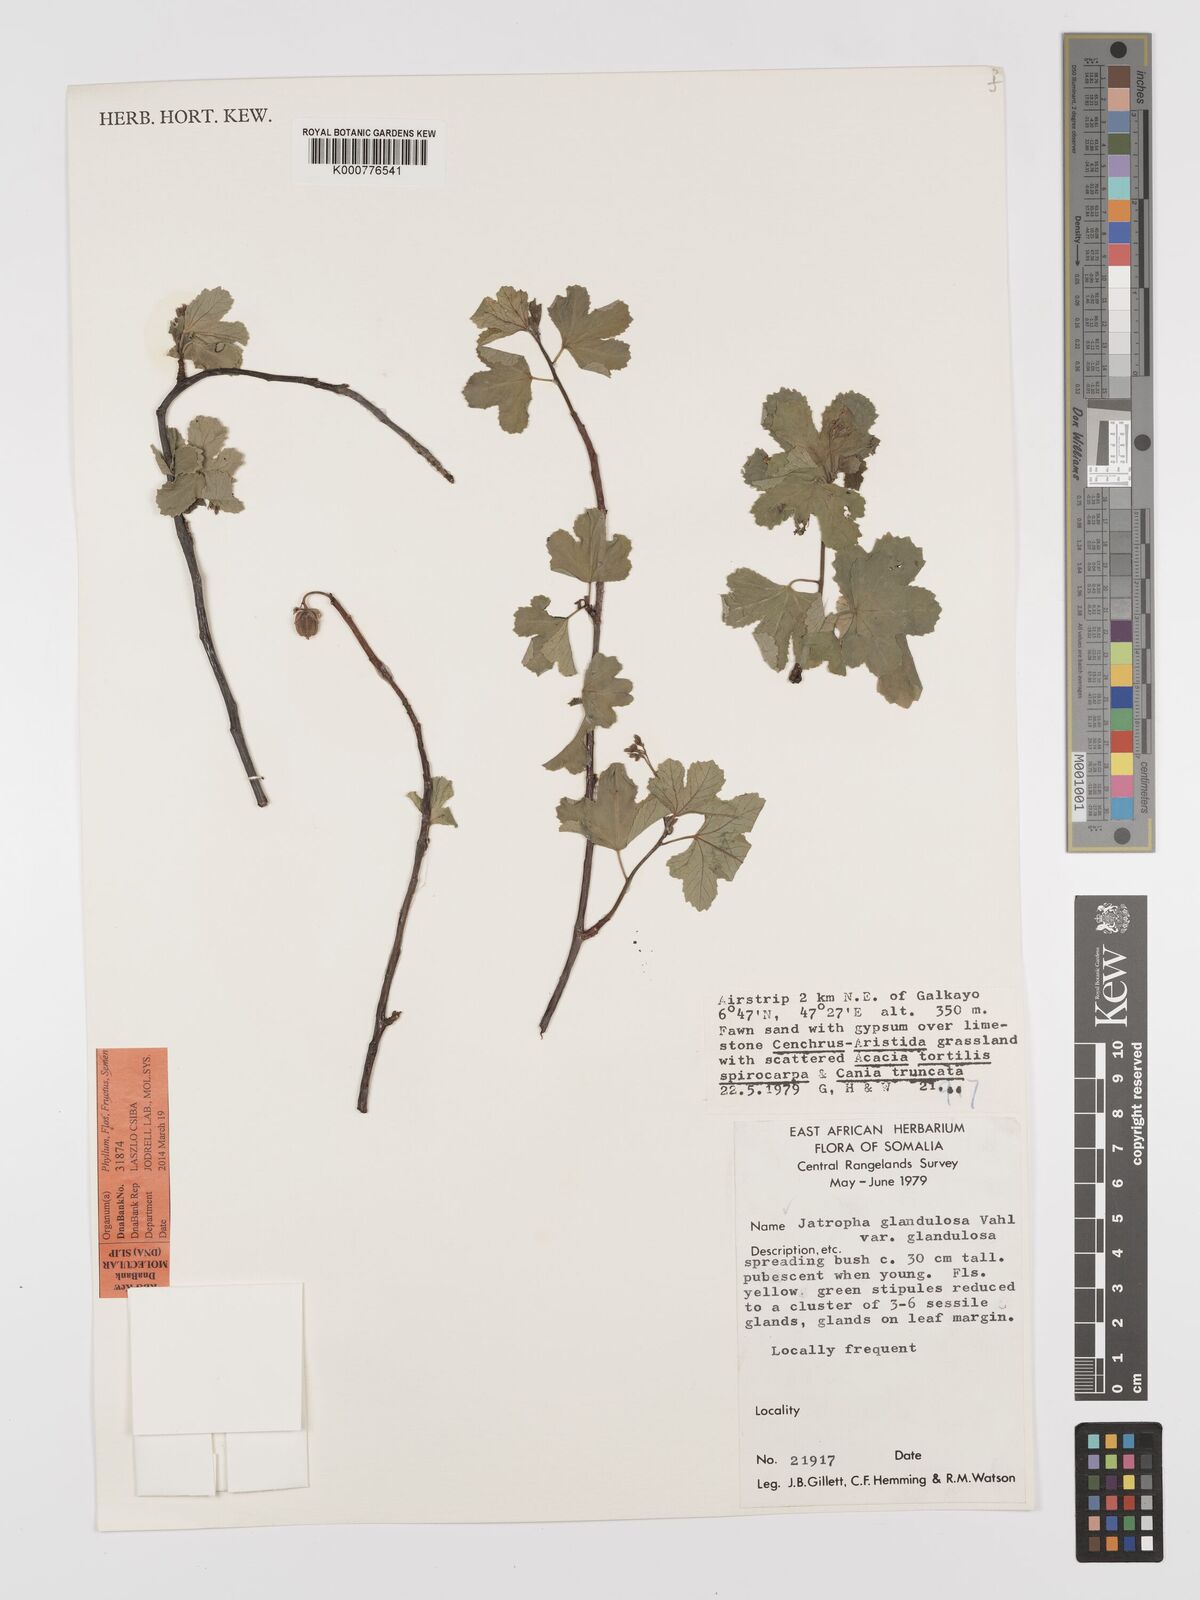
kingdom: Plantae
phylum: Tracheophyta
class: Magnoliopsida
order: Malpighiales
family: Euphorbiaceae
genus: Jatropha
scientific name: Jatropha pelargoniifolia
